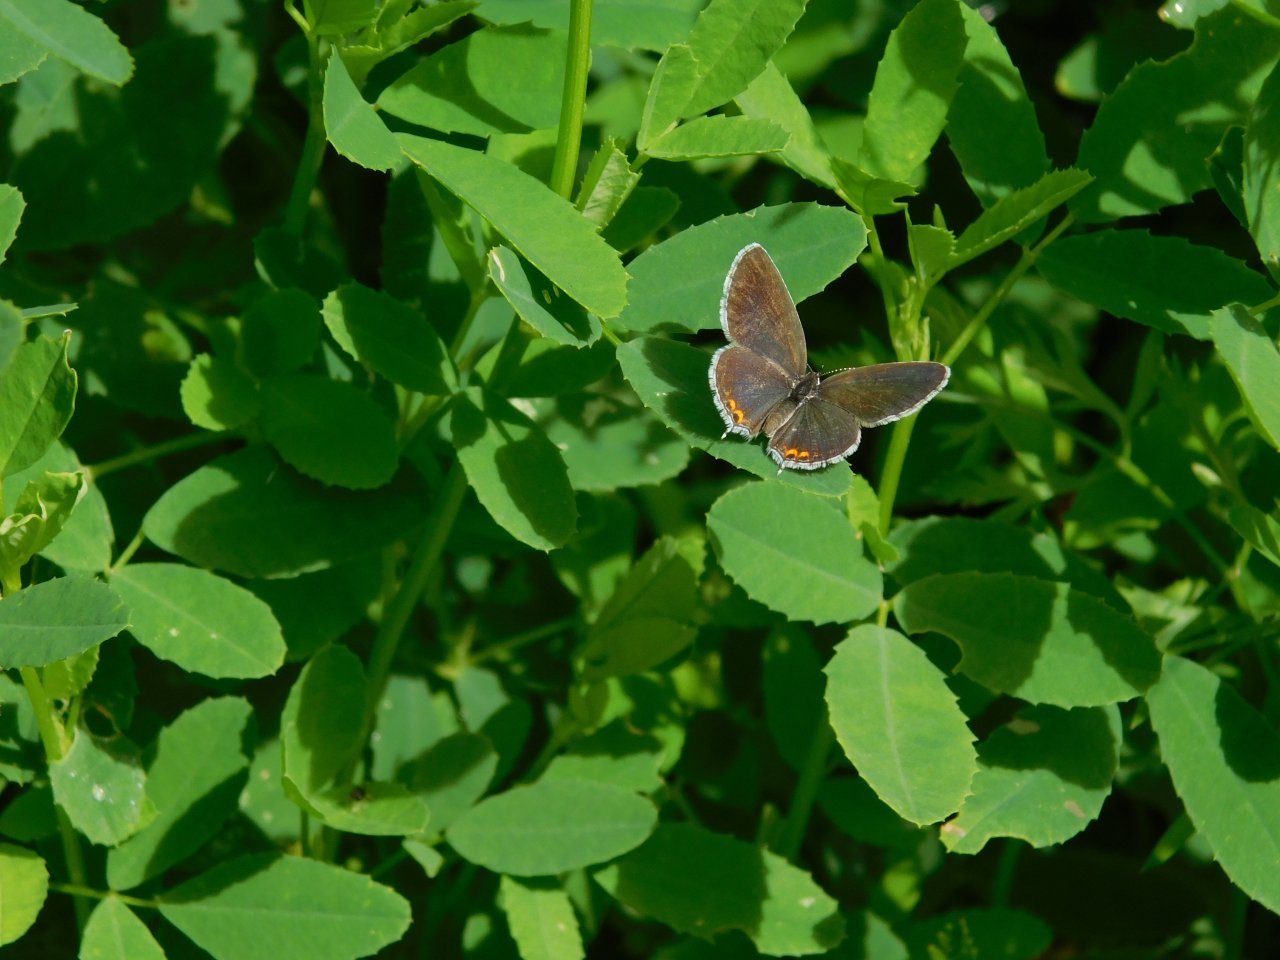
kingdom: Animalia
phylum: Arthropoda
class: Insecta
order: Lepidoptera
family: Lycaenidae
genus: Elkalyce
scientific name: Elkalyce comyntas
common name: Eastern Tailed-Blue
